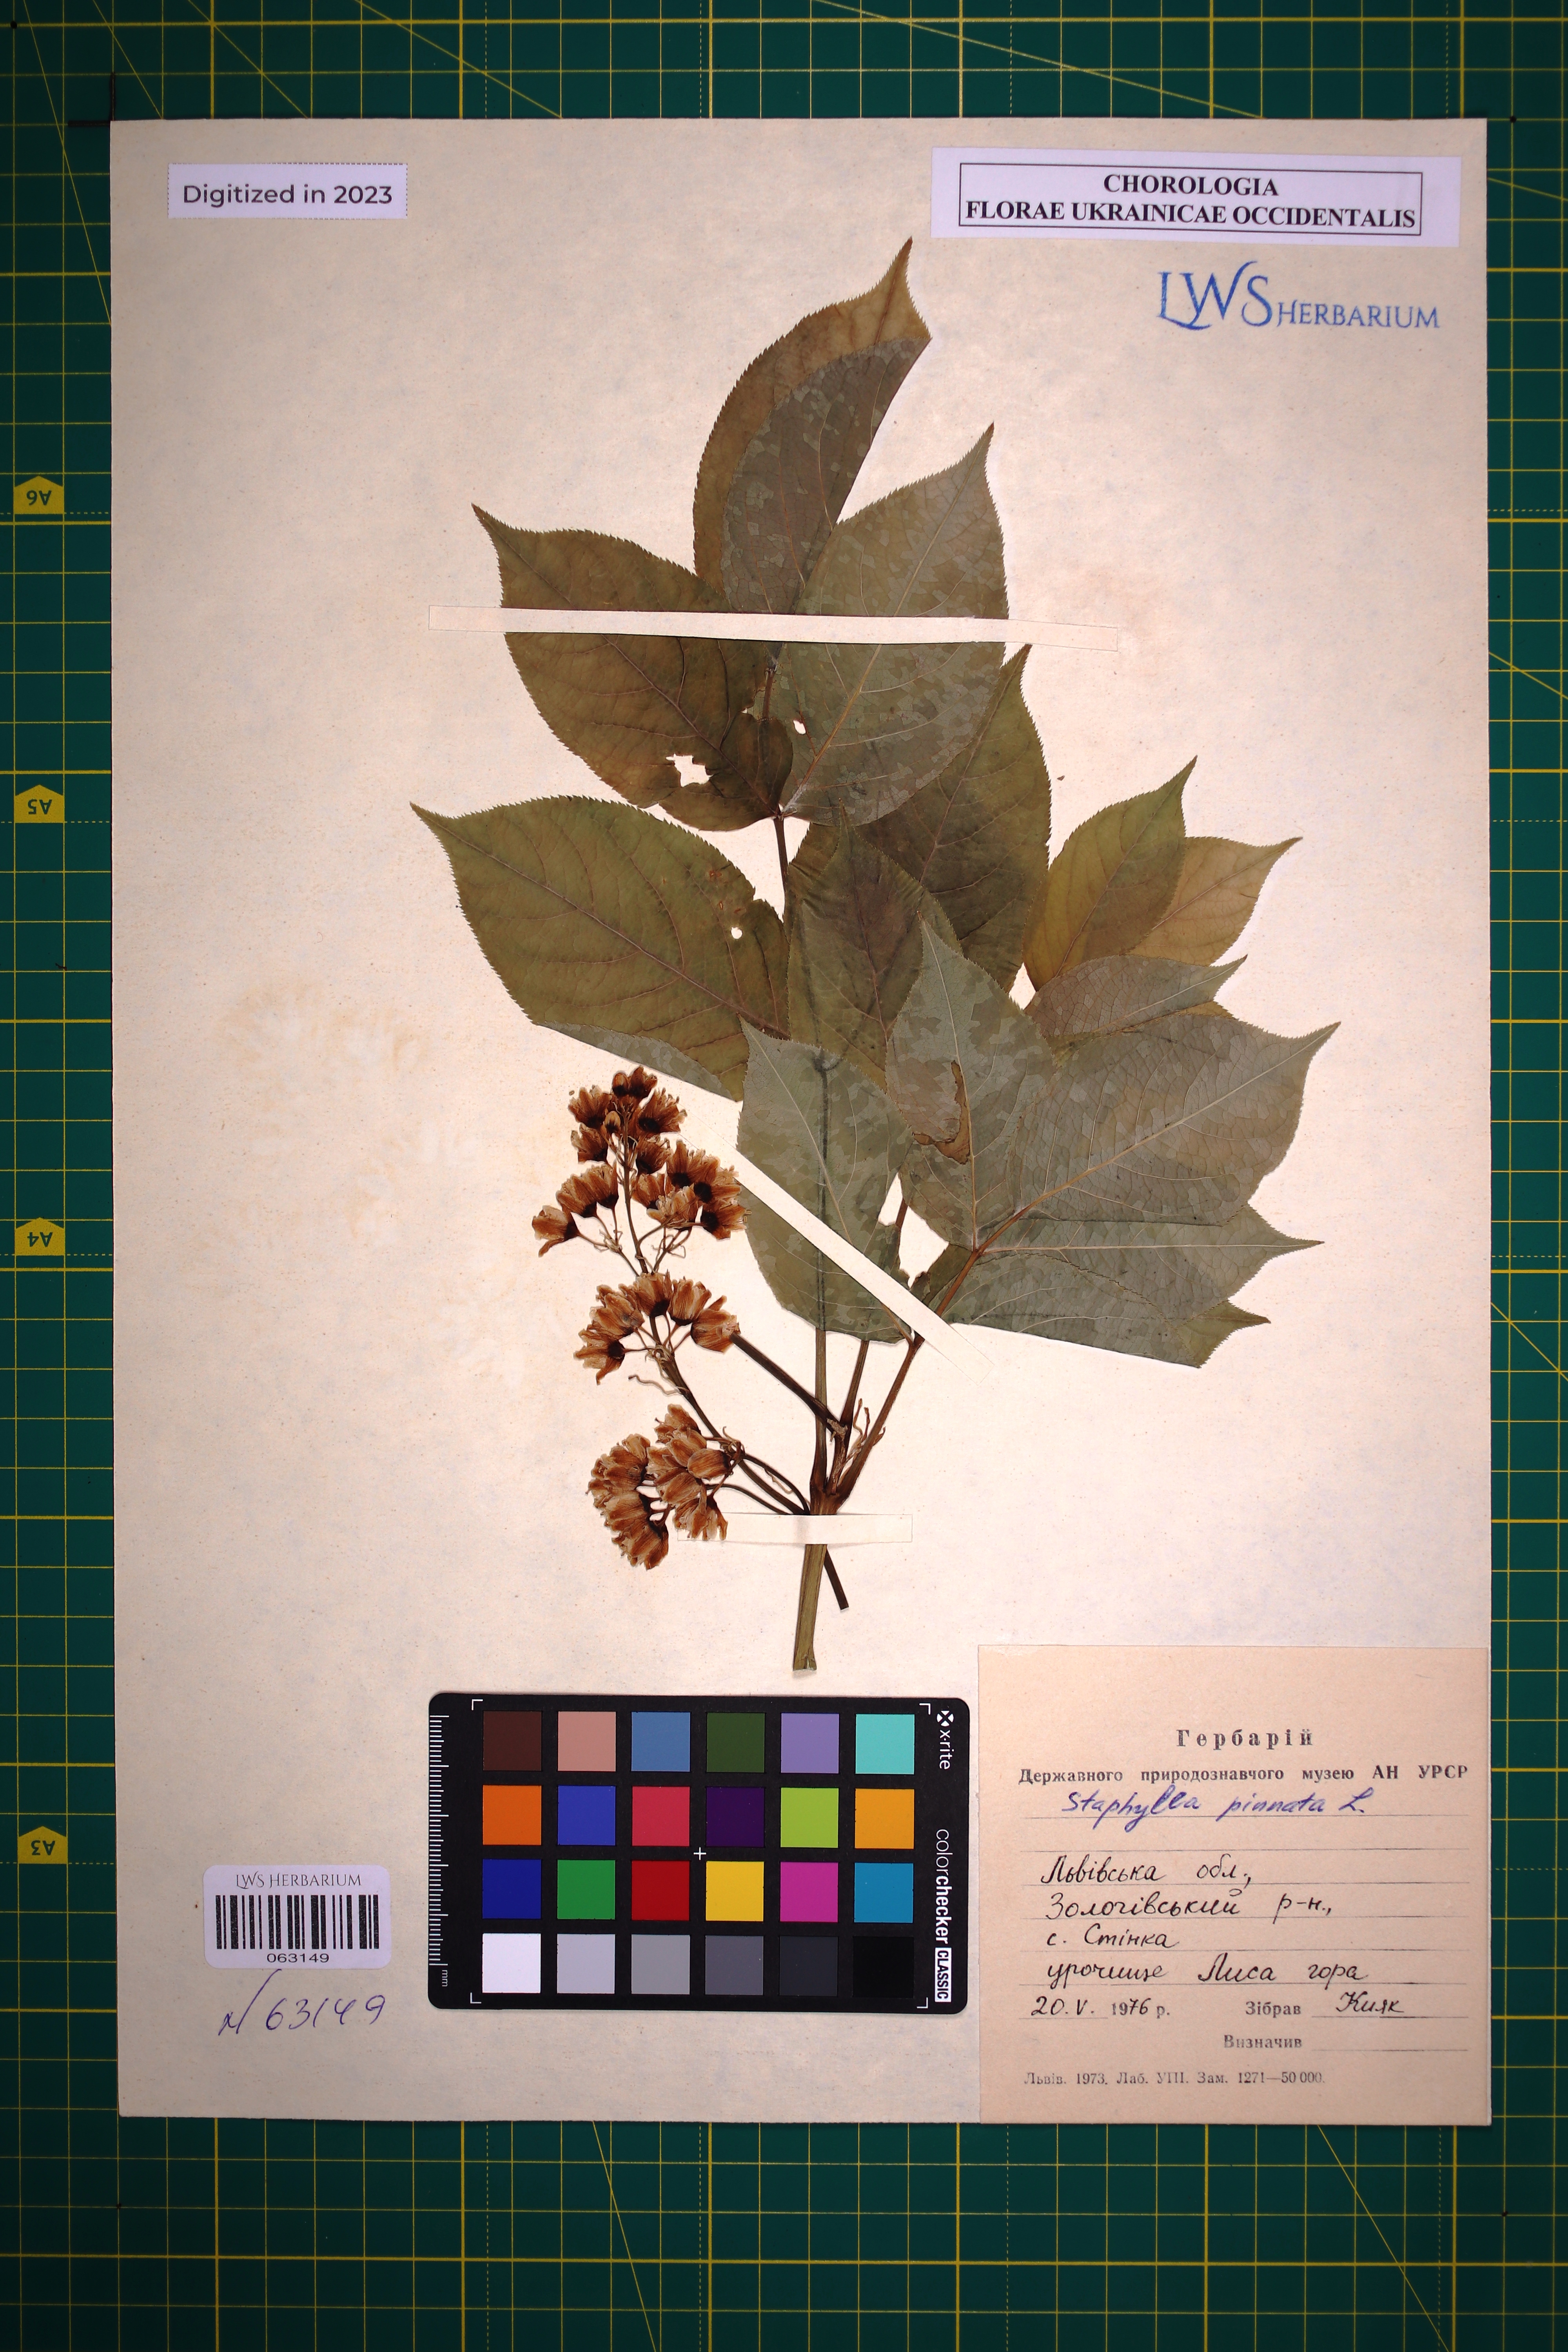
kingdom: Plantae
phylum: Tracheophyta
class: Magnoliopsida
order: Crossosomatales
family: Staphyleaceae
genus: Staphylea
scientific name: Staphylea pinnata
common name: Bladdernut
